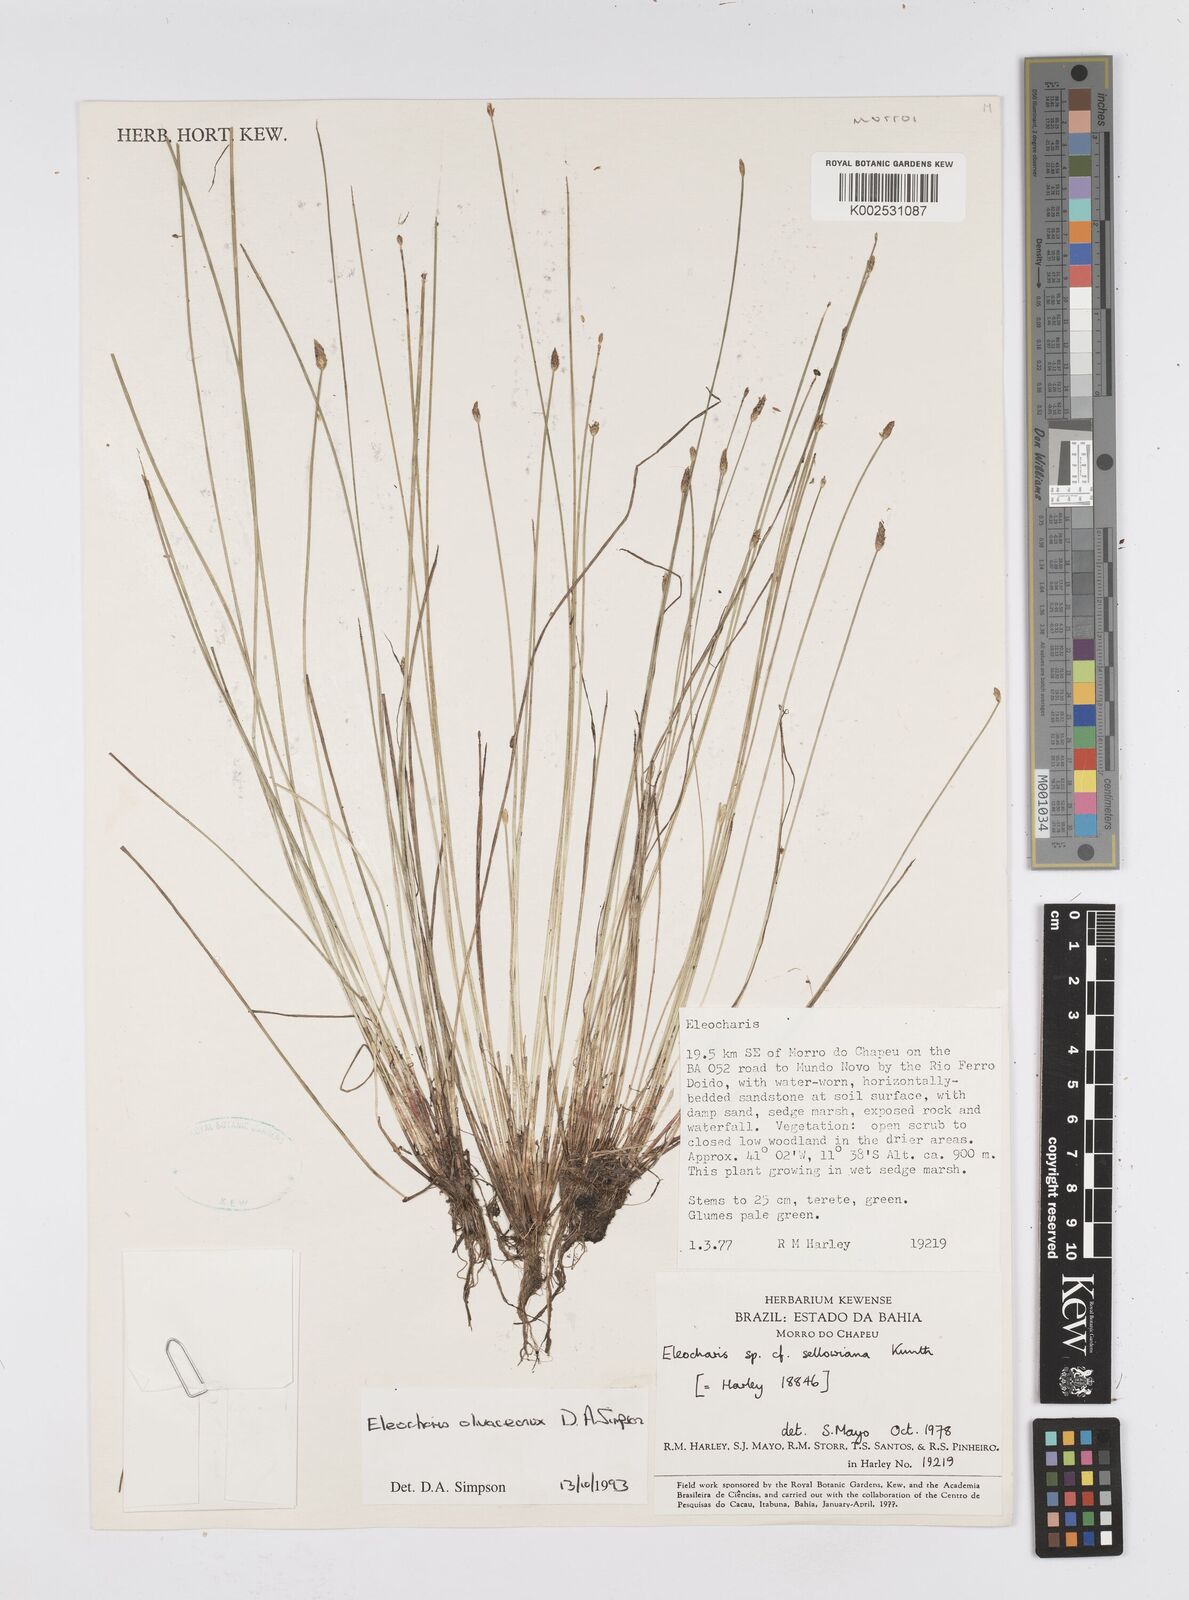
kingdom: Plantae
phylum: Tracheophyta
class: Liliopsida
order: Poales
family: Cyperaceae
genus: Eleocharis
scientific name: Eleocharis olivaceonux
